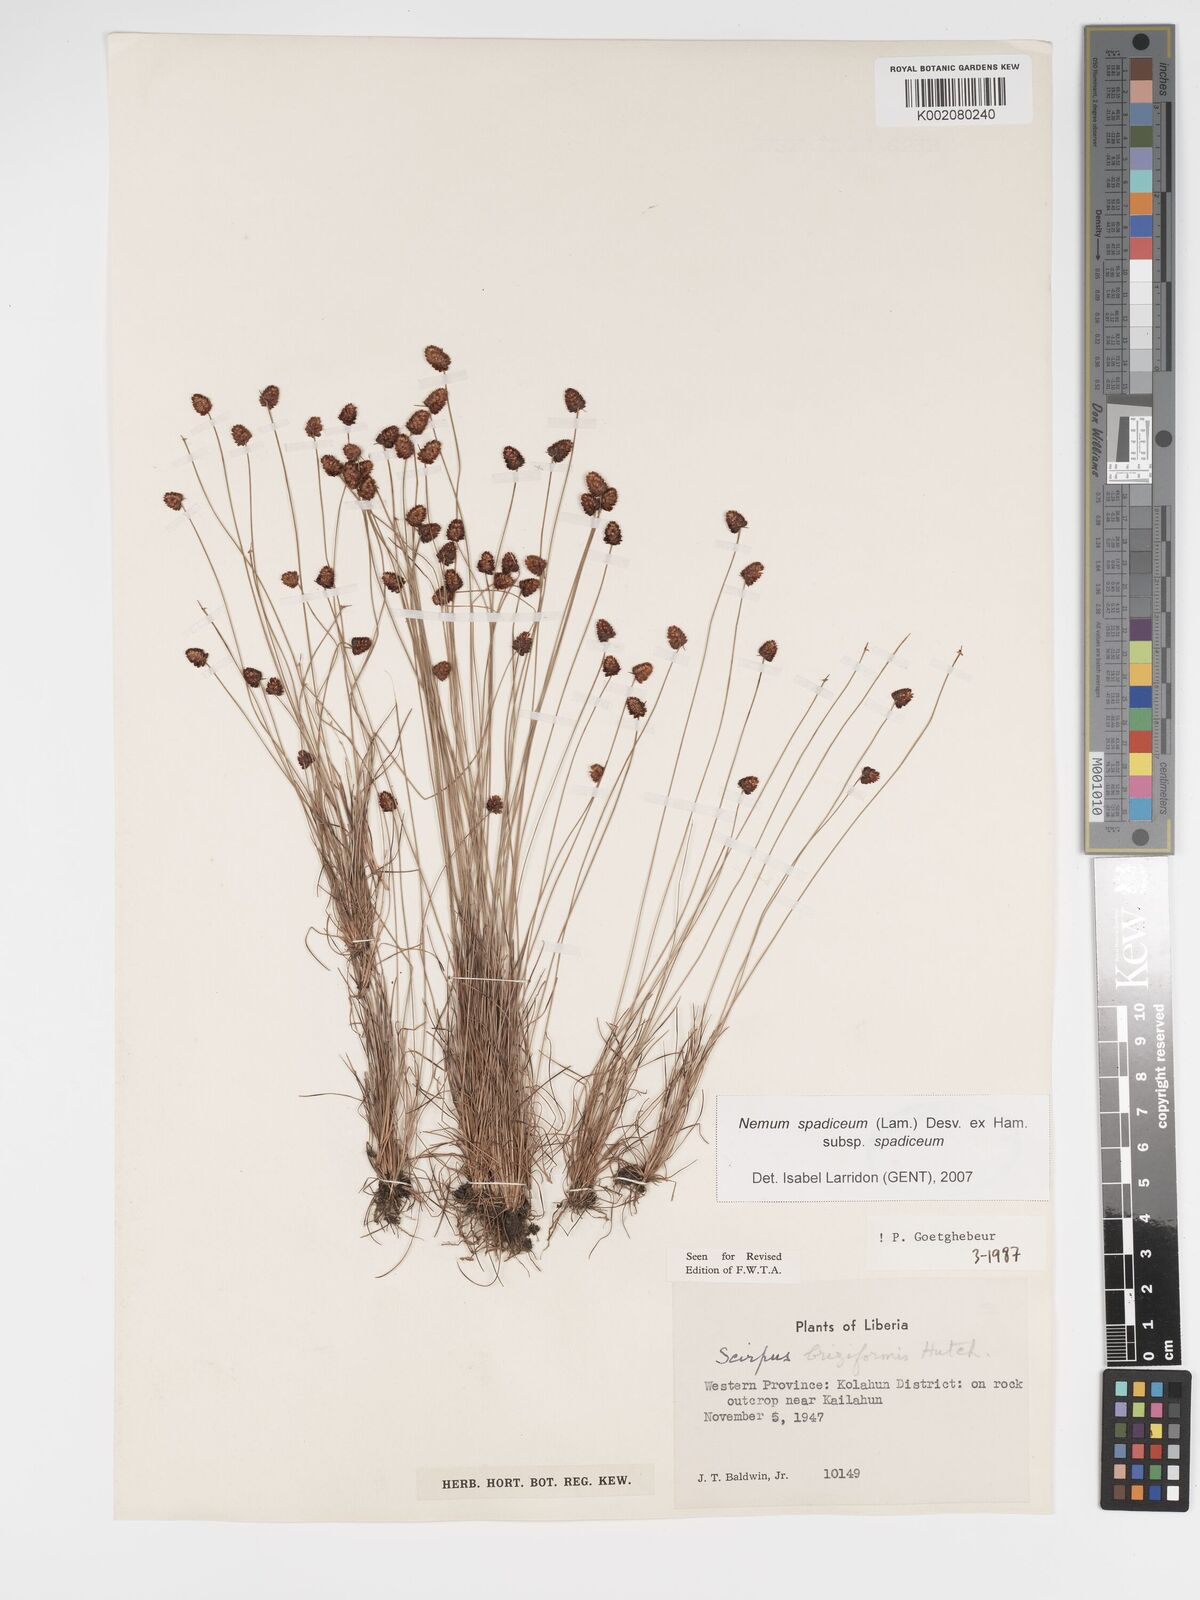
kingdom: Plantae
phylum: Tracheophyta
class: Liliopsida
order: Poales
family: Cyperaceae
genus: Bulbostylis
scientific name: Bulbostylis briziformis
